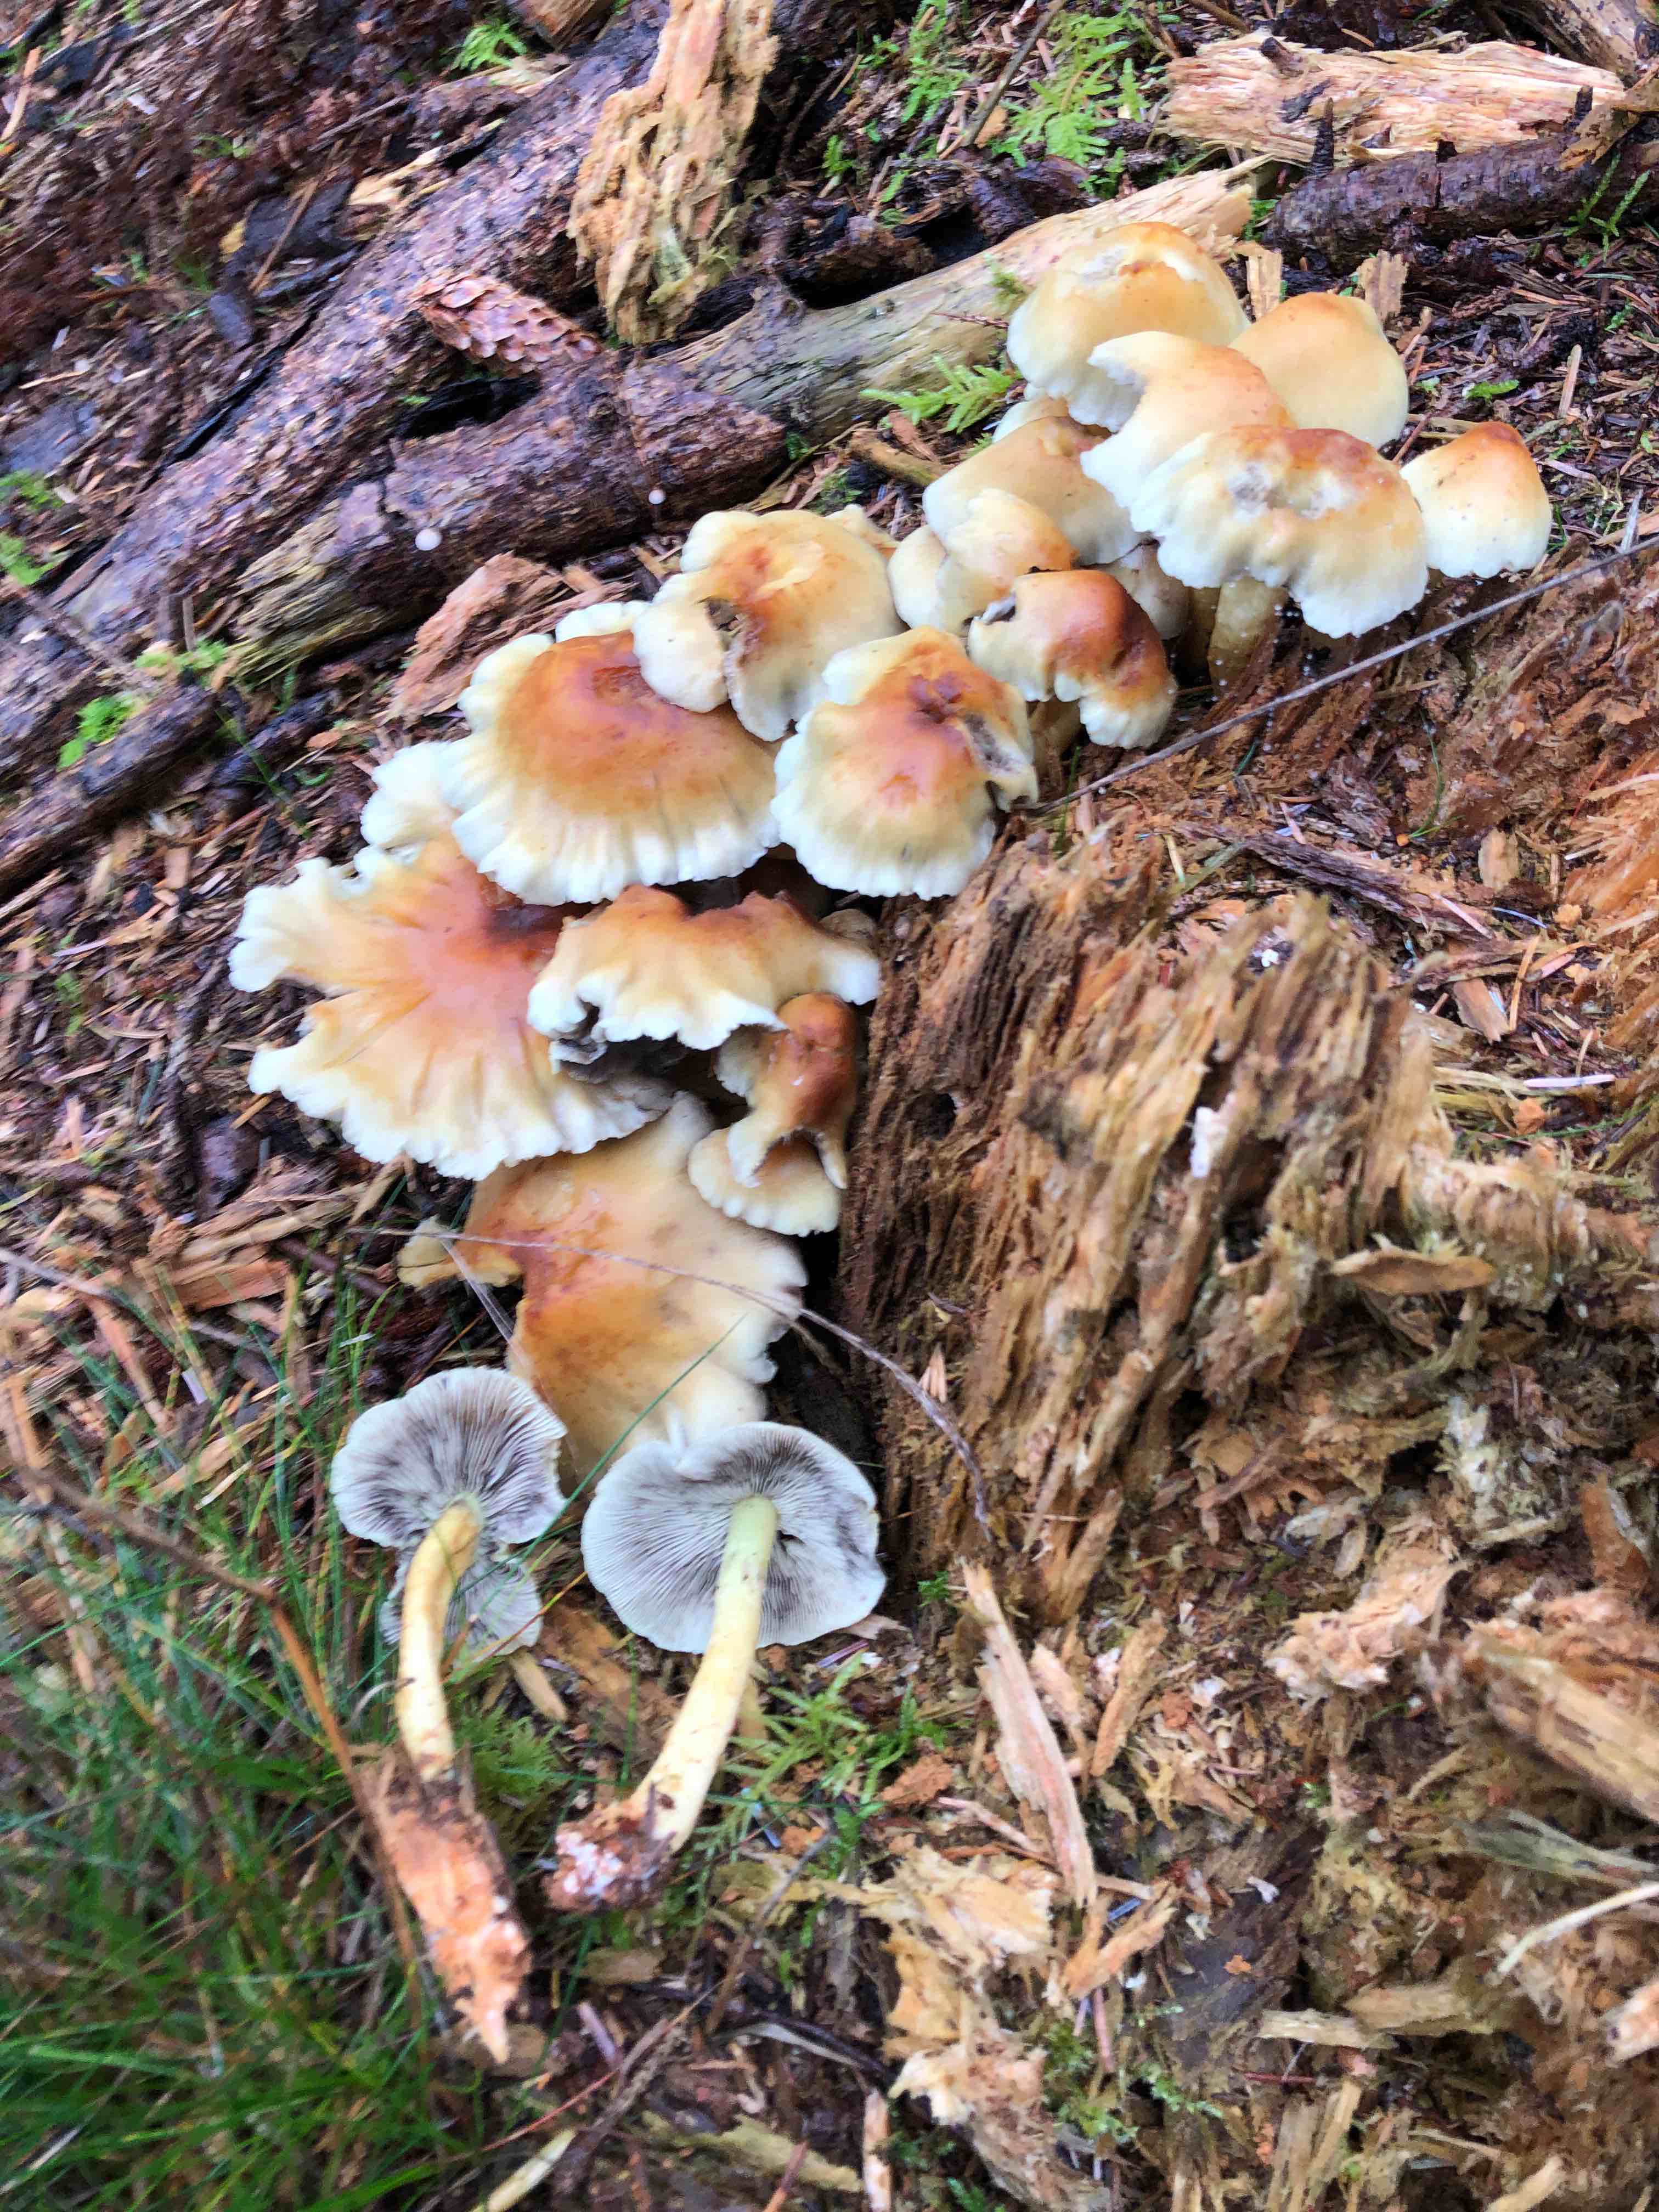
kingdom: Fungi
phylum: Basidiomycota
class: Agaricomycetes
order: Agaricales
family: Strophariaceae
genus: Hypholoma
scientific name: Hypholoma fasciculare
